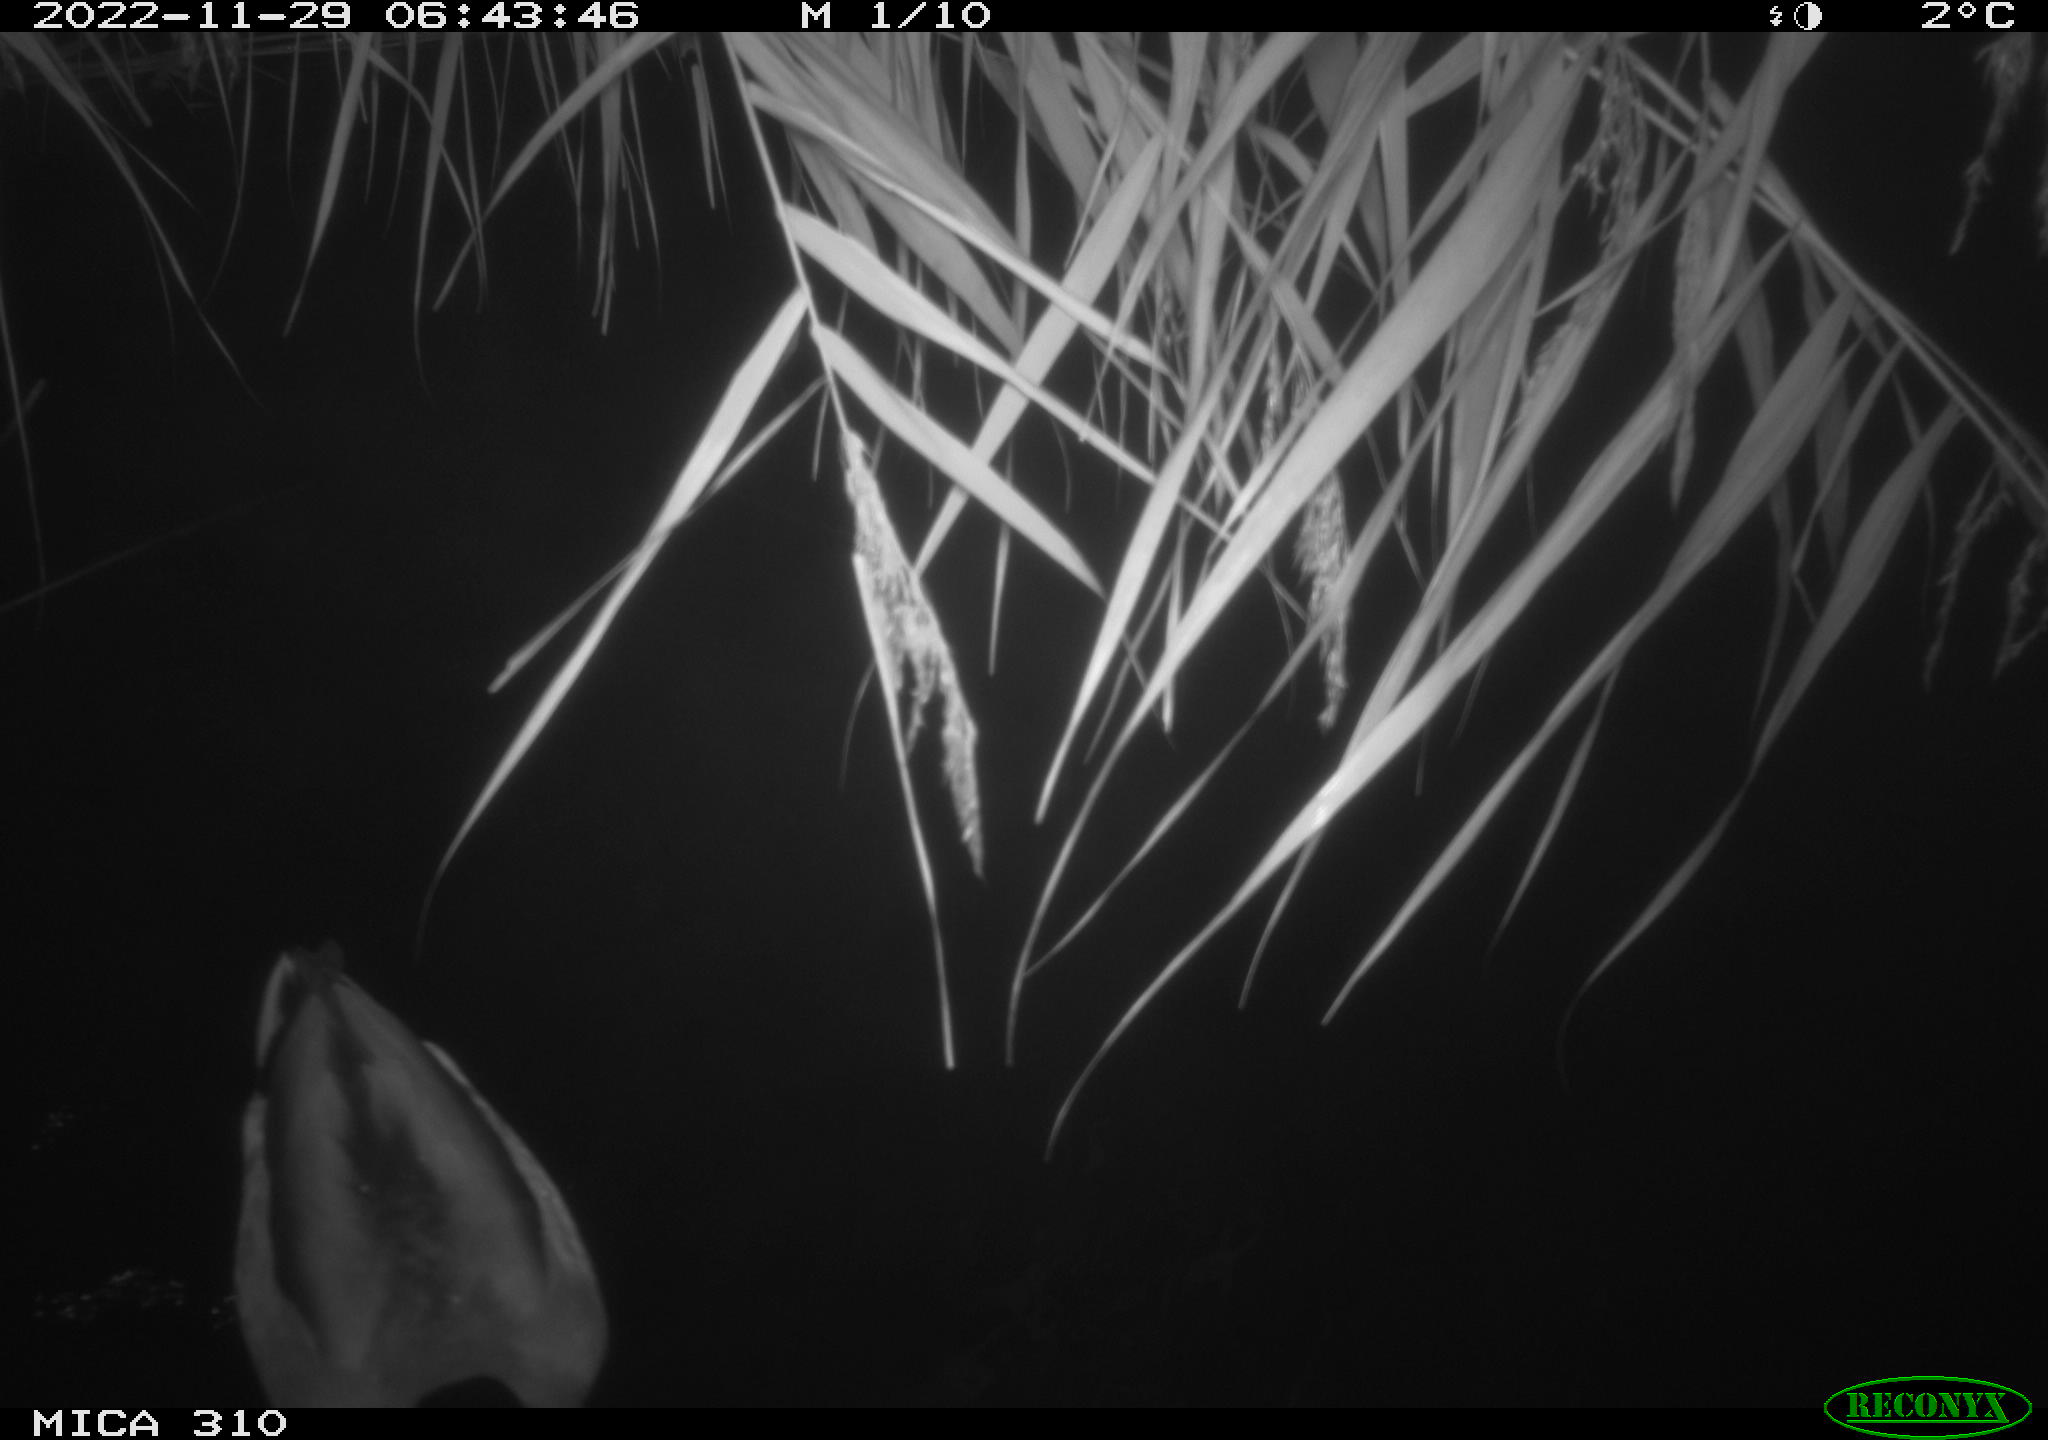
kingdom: Animalia
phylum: Chordata
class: Aves
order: Anseriformes
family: Anatidae
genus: Anas
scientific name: Anas
